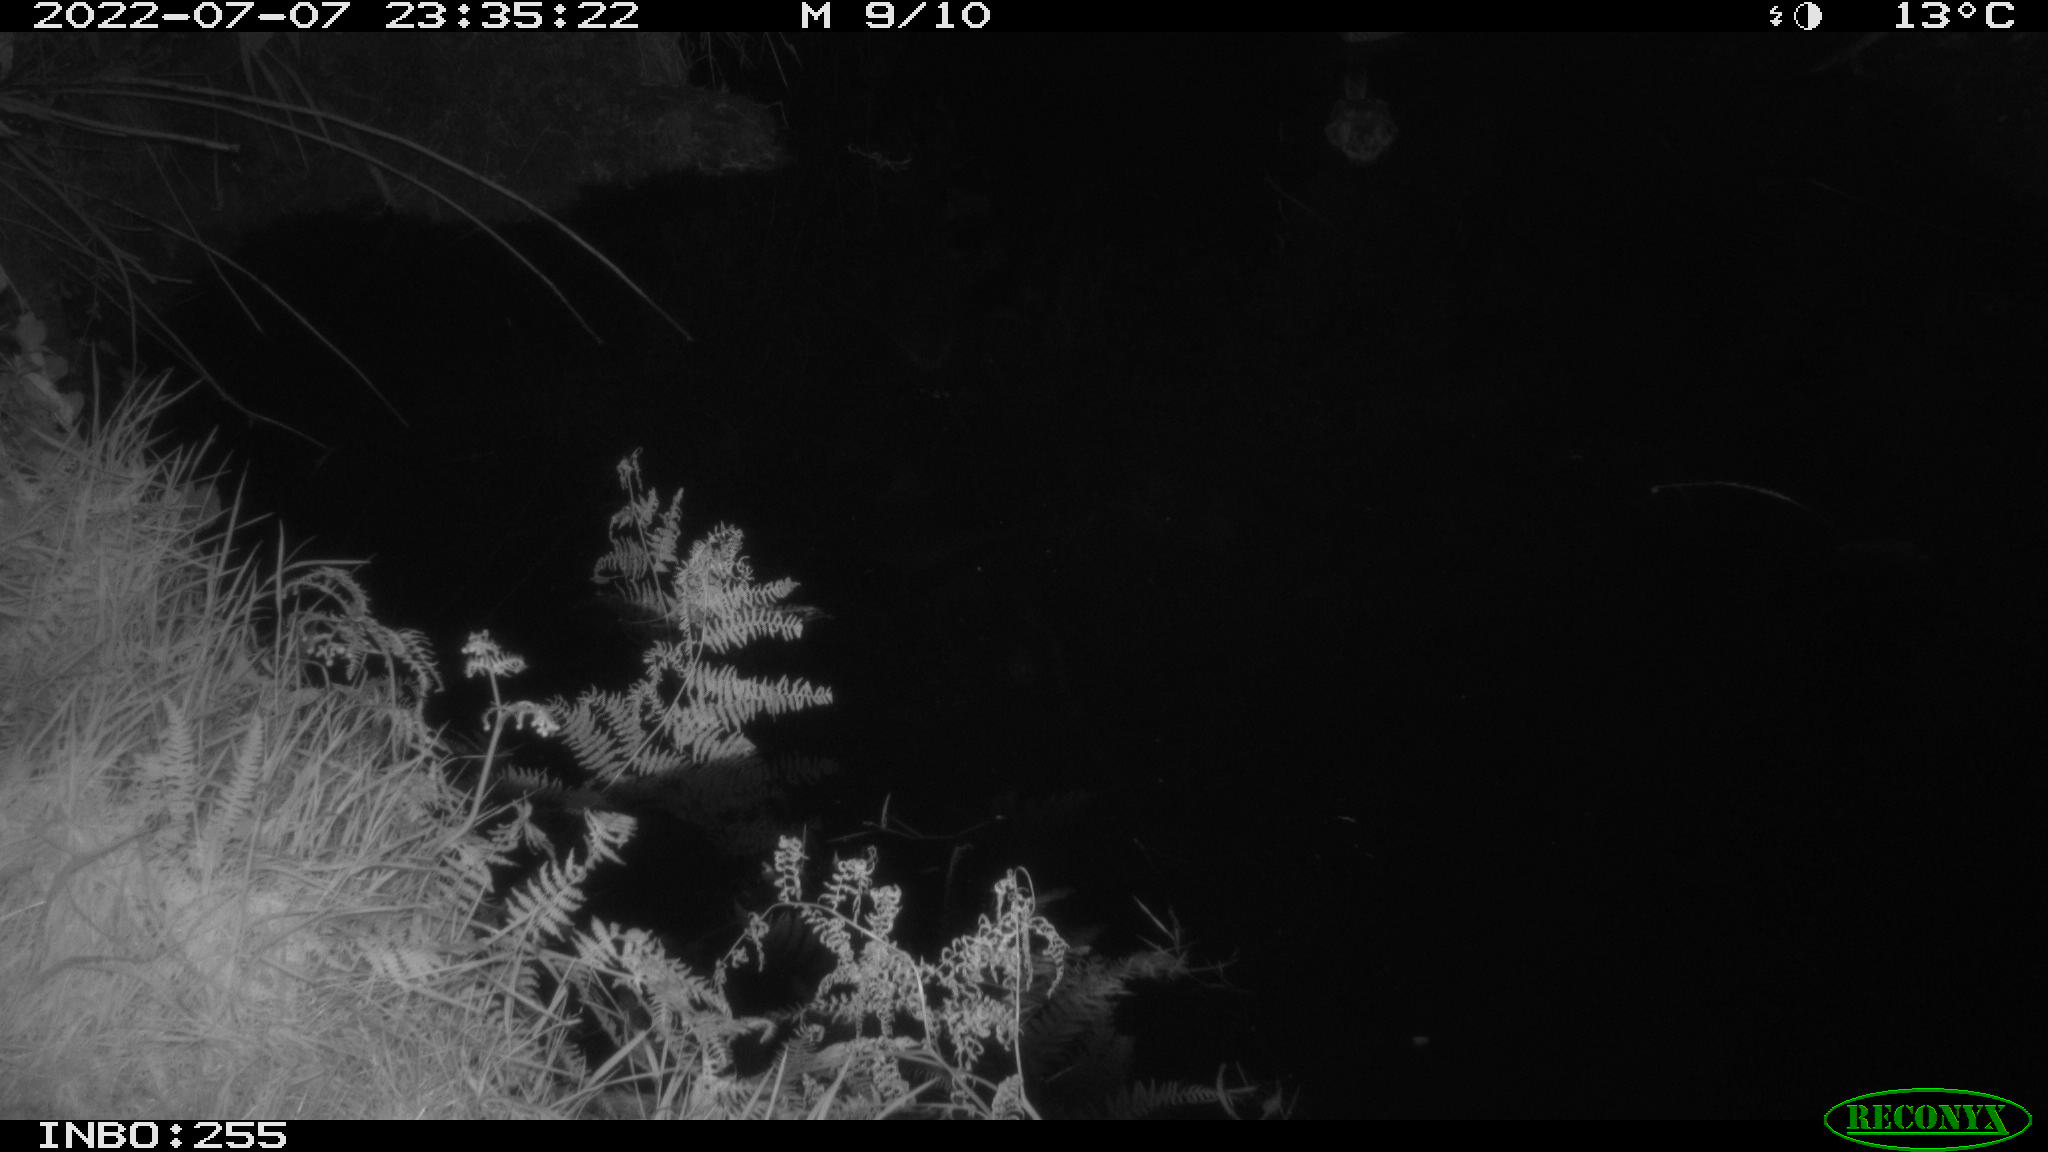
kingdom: Animalia
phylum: Chordata
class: Aves
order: Anseriformes
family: Anatidae
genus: Anas
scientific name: Anas platyrhynchos
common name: Mallard
